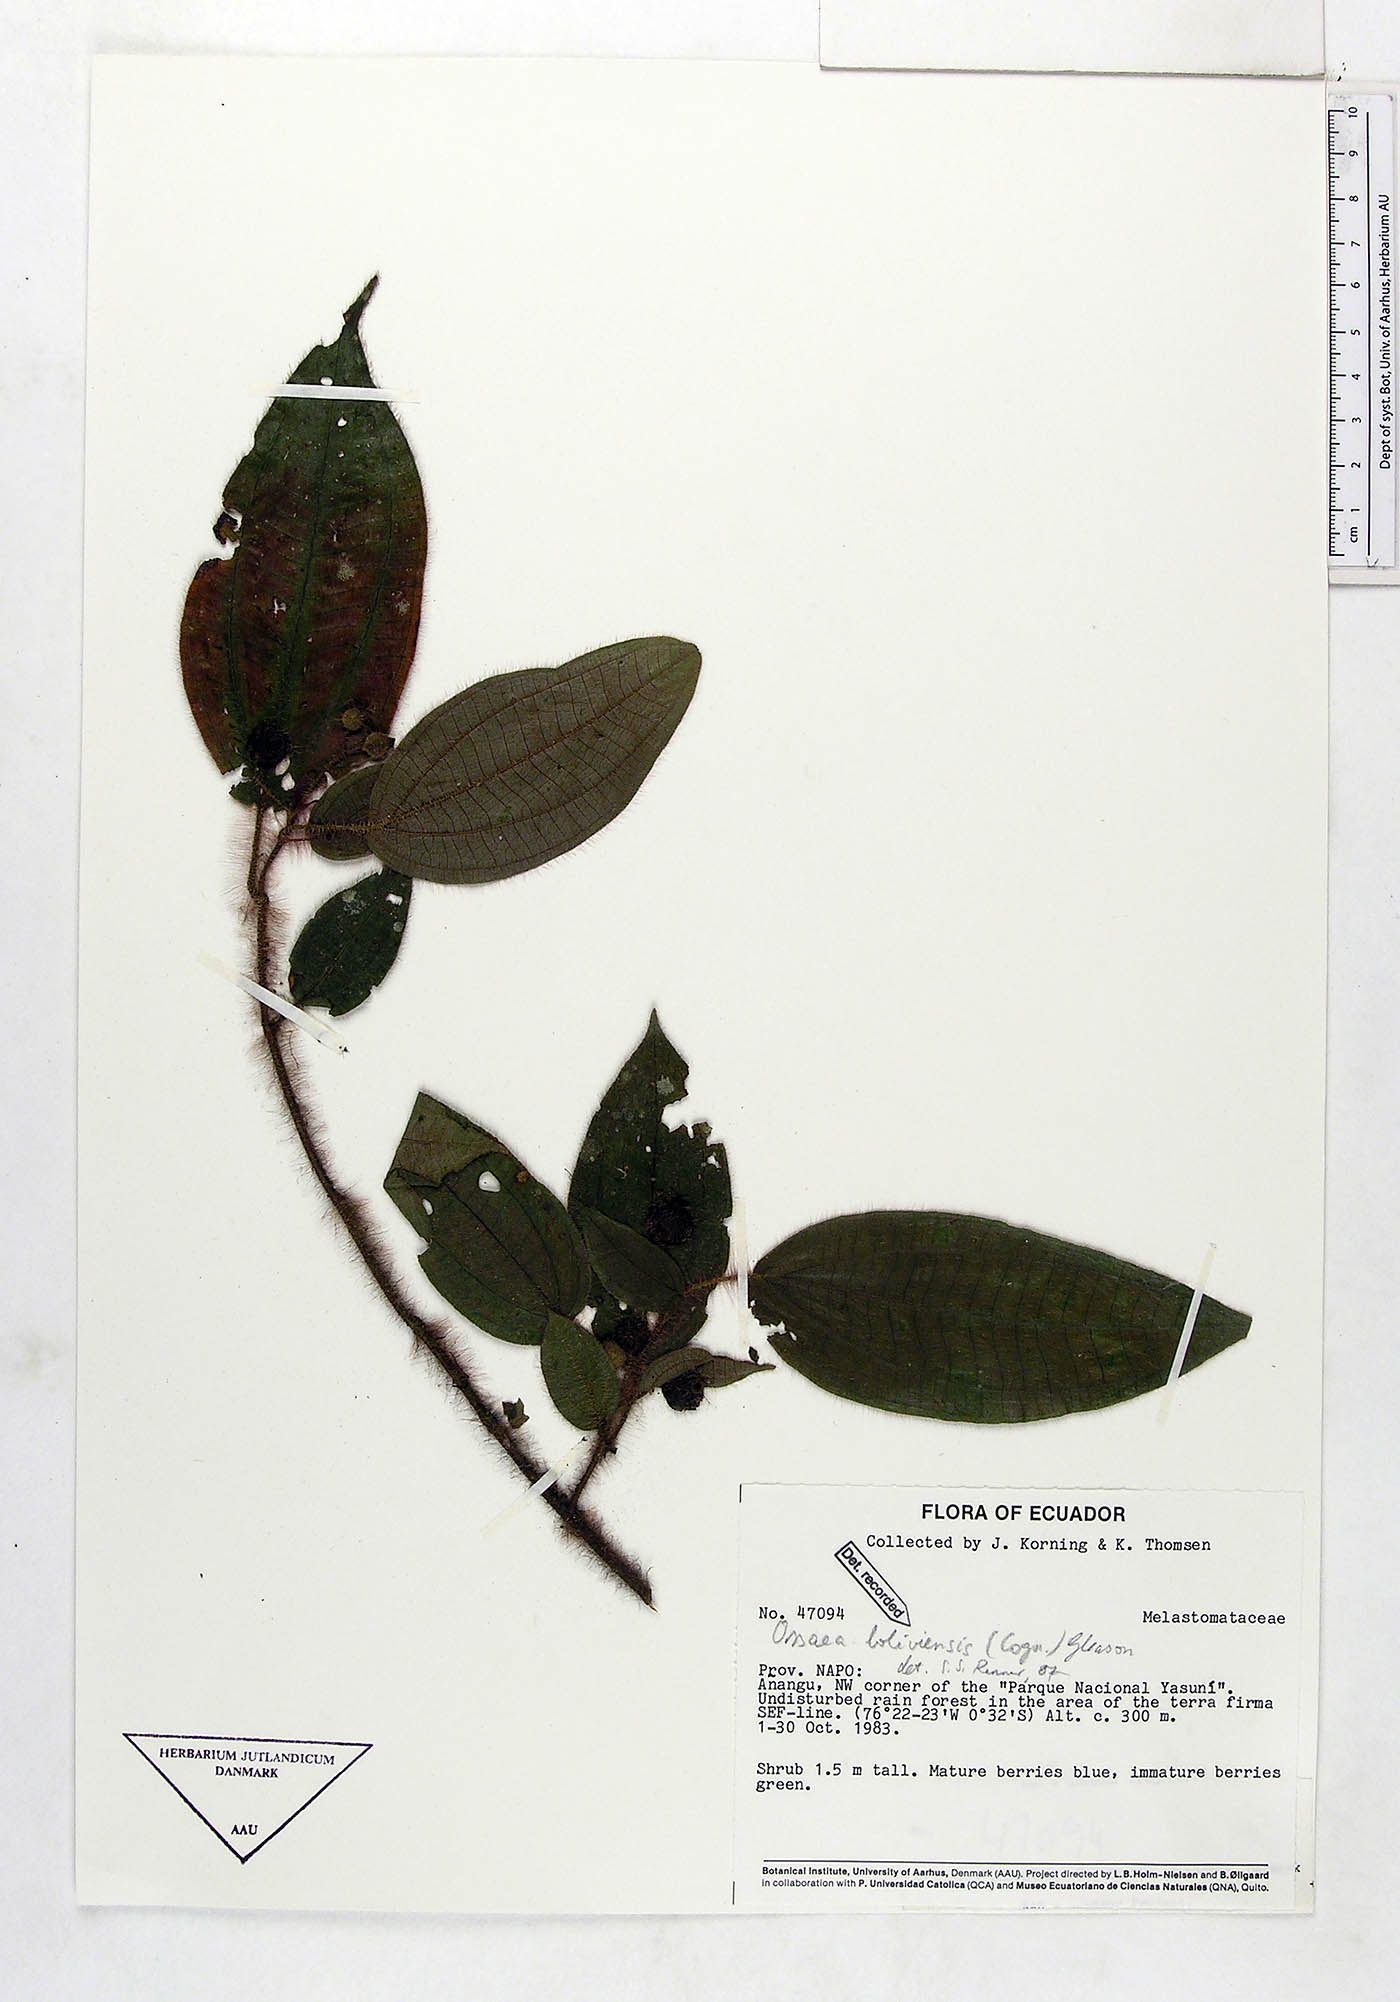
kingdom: Plantae
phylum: Tracheophyta
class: Magnoliopsida
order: Myrtales
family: Melastomataceae
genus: Miconia
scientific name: Miconia violascens
